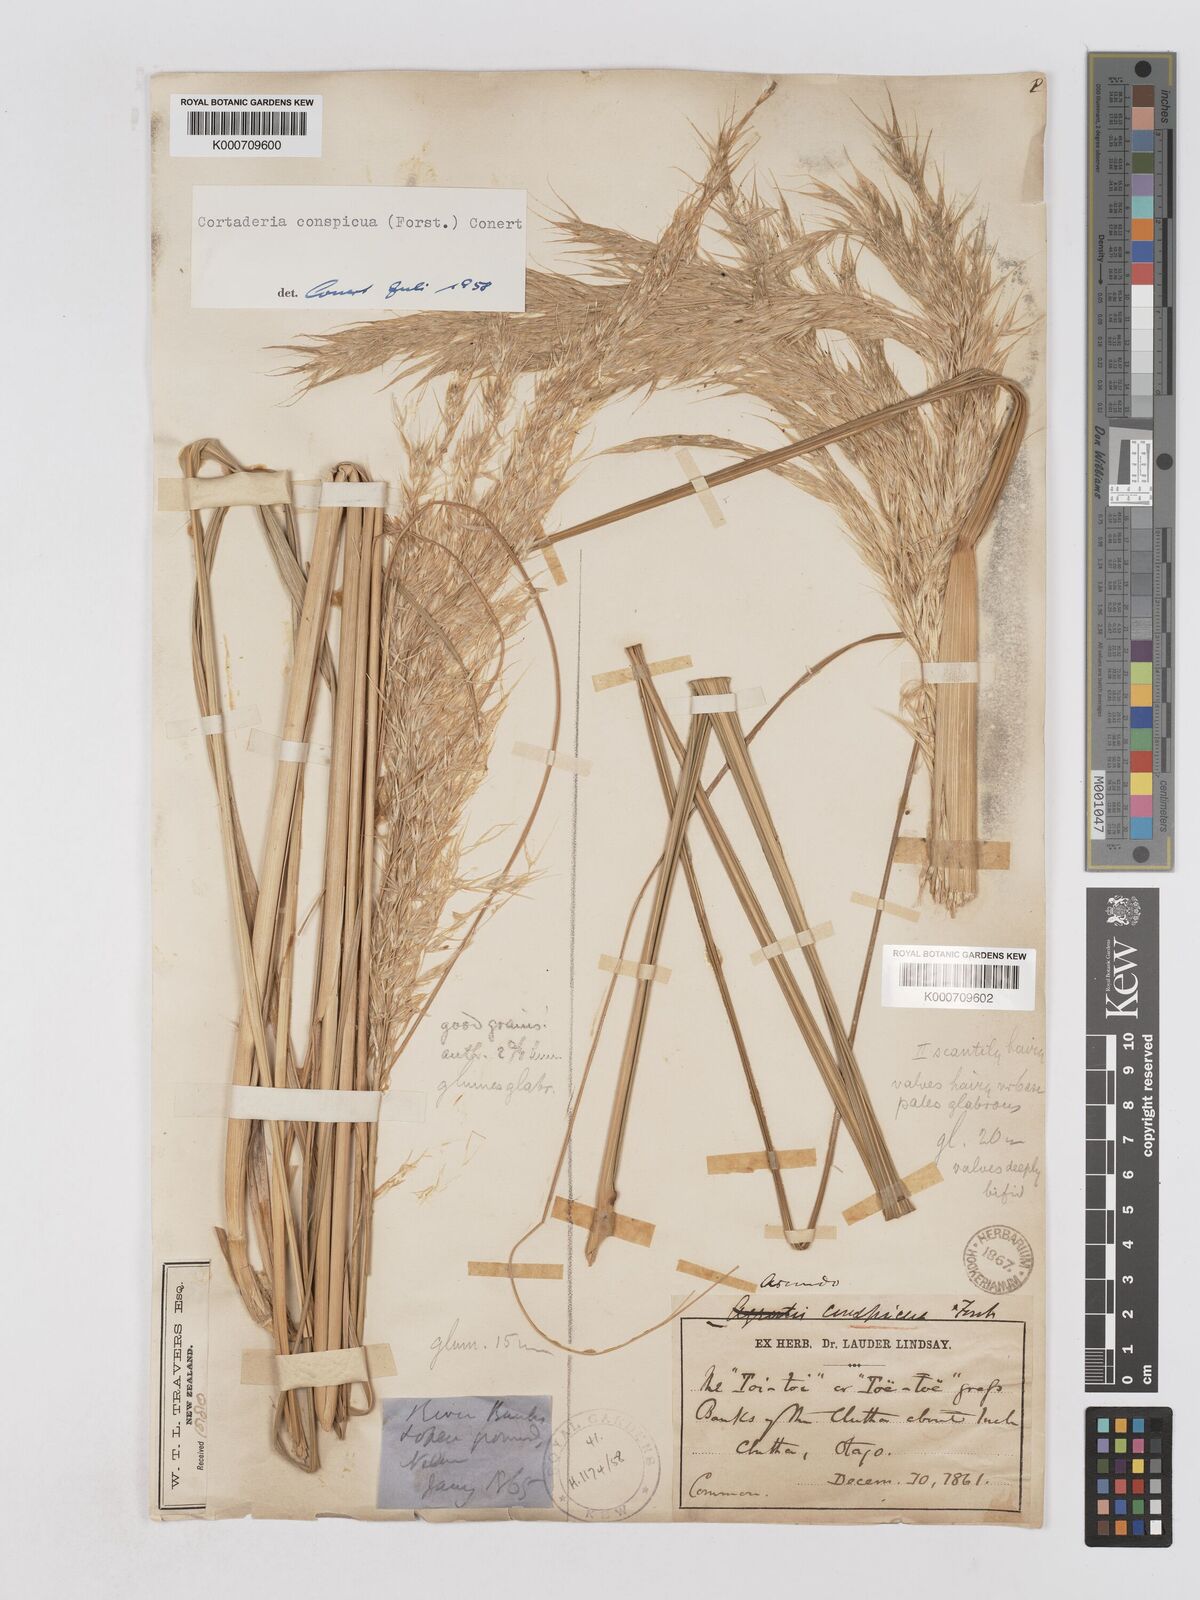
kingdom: Plantae
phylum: Tracheophyta
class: Liliopsida
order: Poales
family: Poaceae
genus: Austroderia
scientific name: Austroderia richardii
